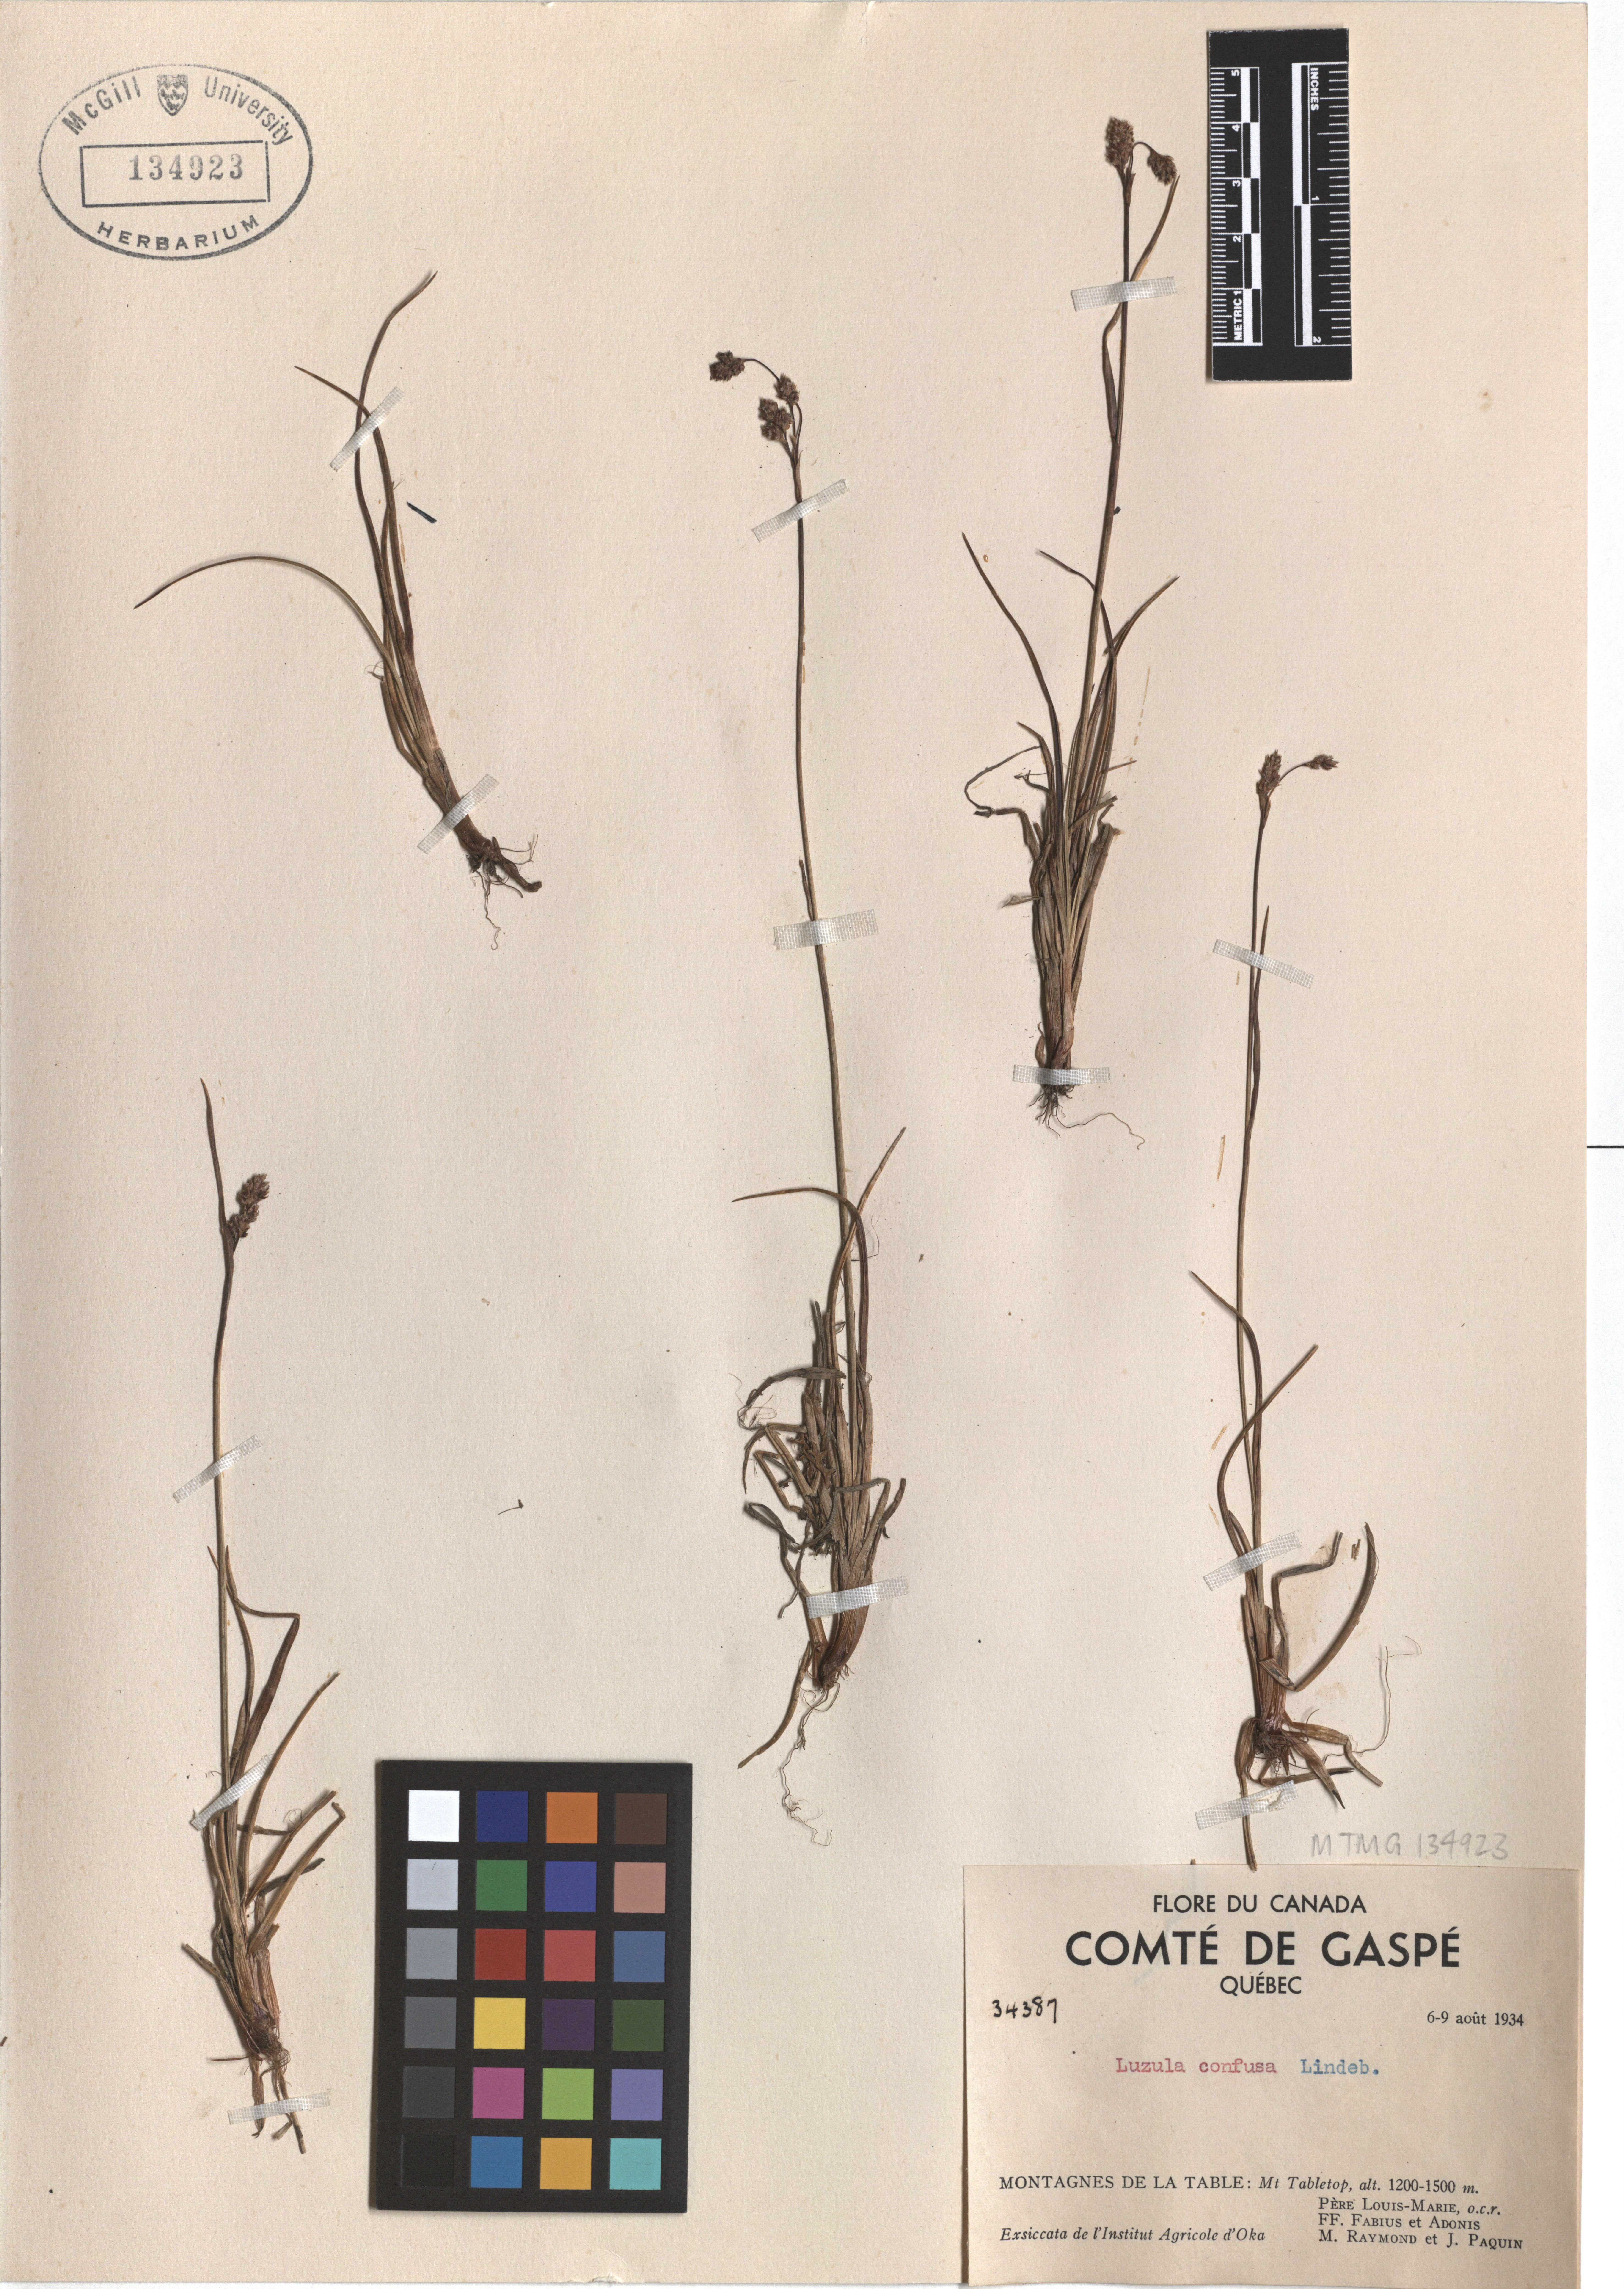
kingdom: Plantae
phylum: Tracheophyta
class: Liliopsida
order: Poales
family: Juncaceae
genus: Luzula
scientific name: Luzula confusa
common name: Northern wood rush
